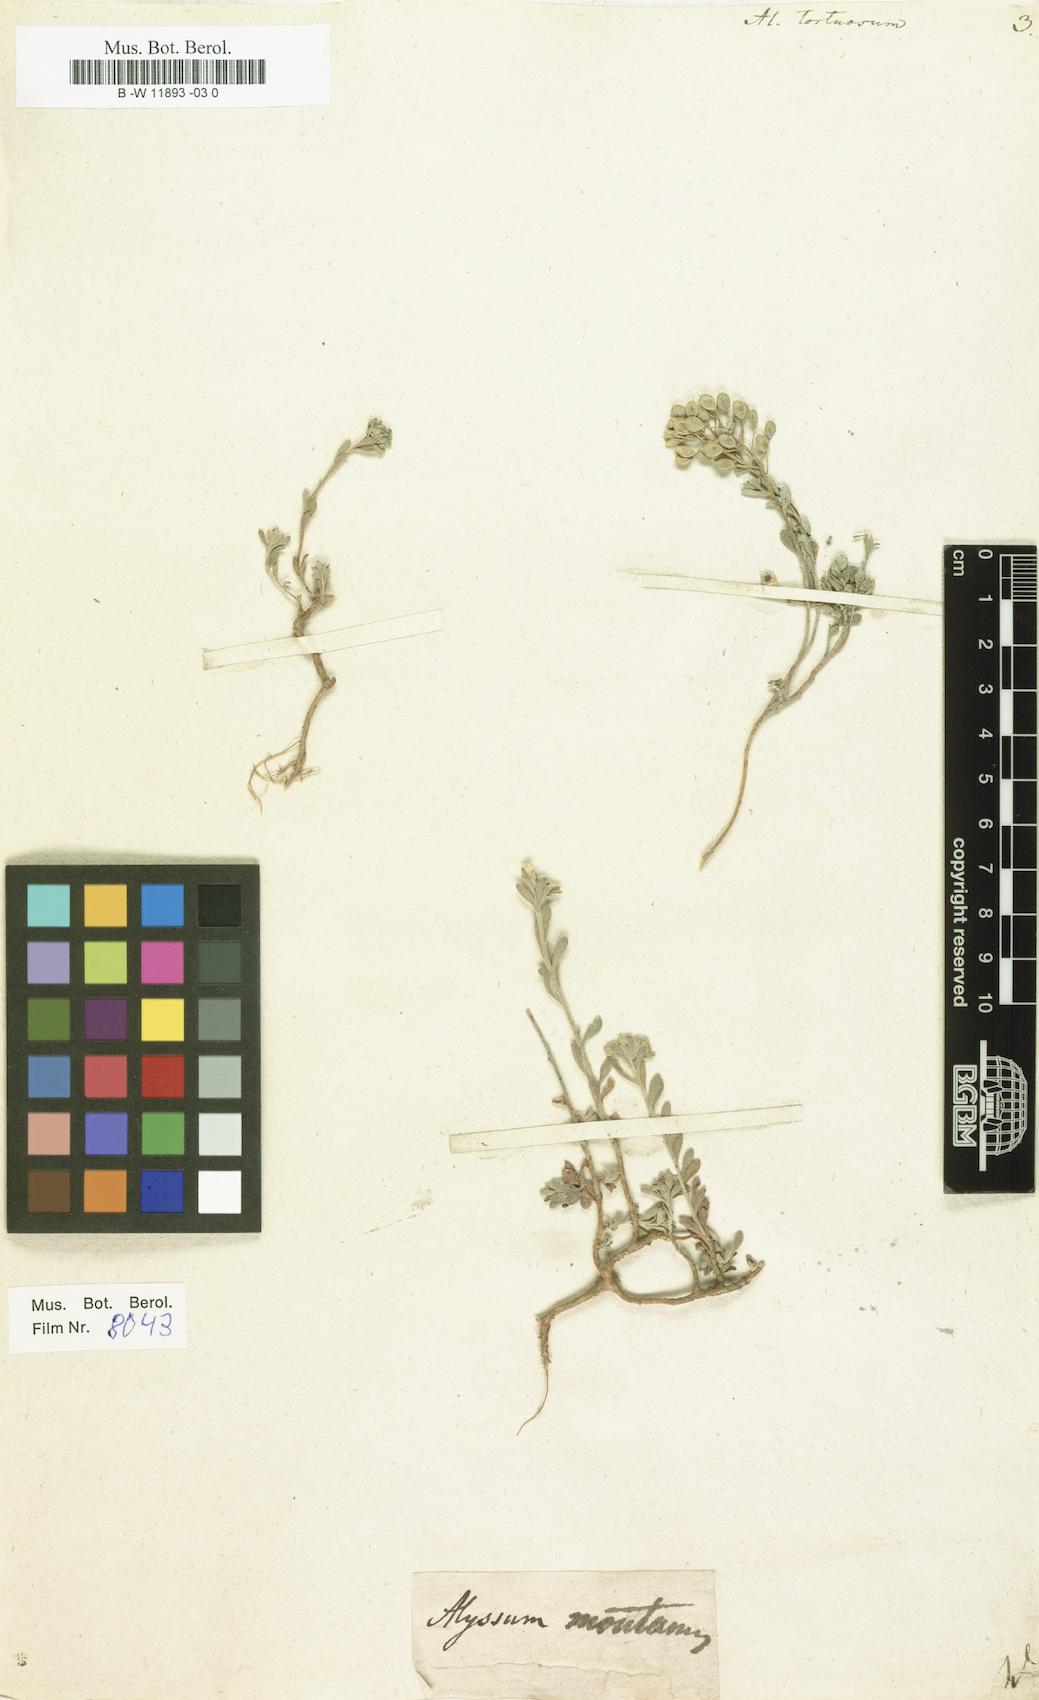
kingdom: Plantae
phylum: Tracheophyta
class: Magnoliopsida
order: Brassicales
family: Brassicaceae
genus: Odontarrhena
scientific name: Odontarrhena tortuosa
